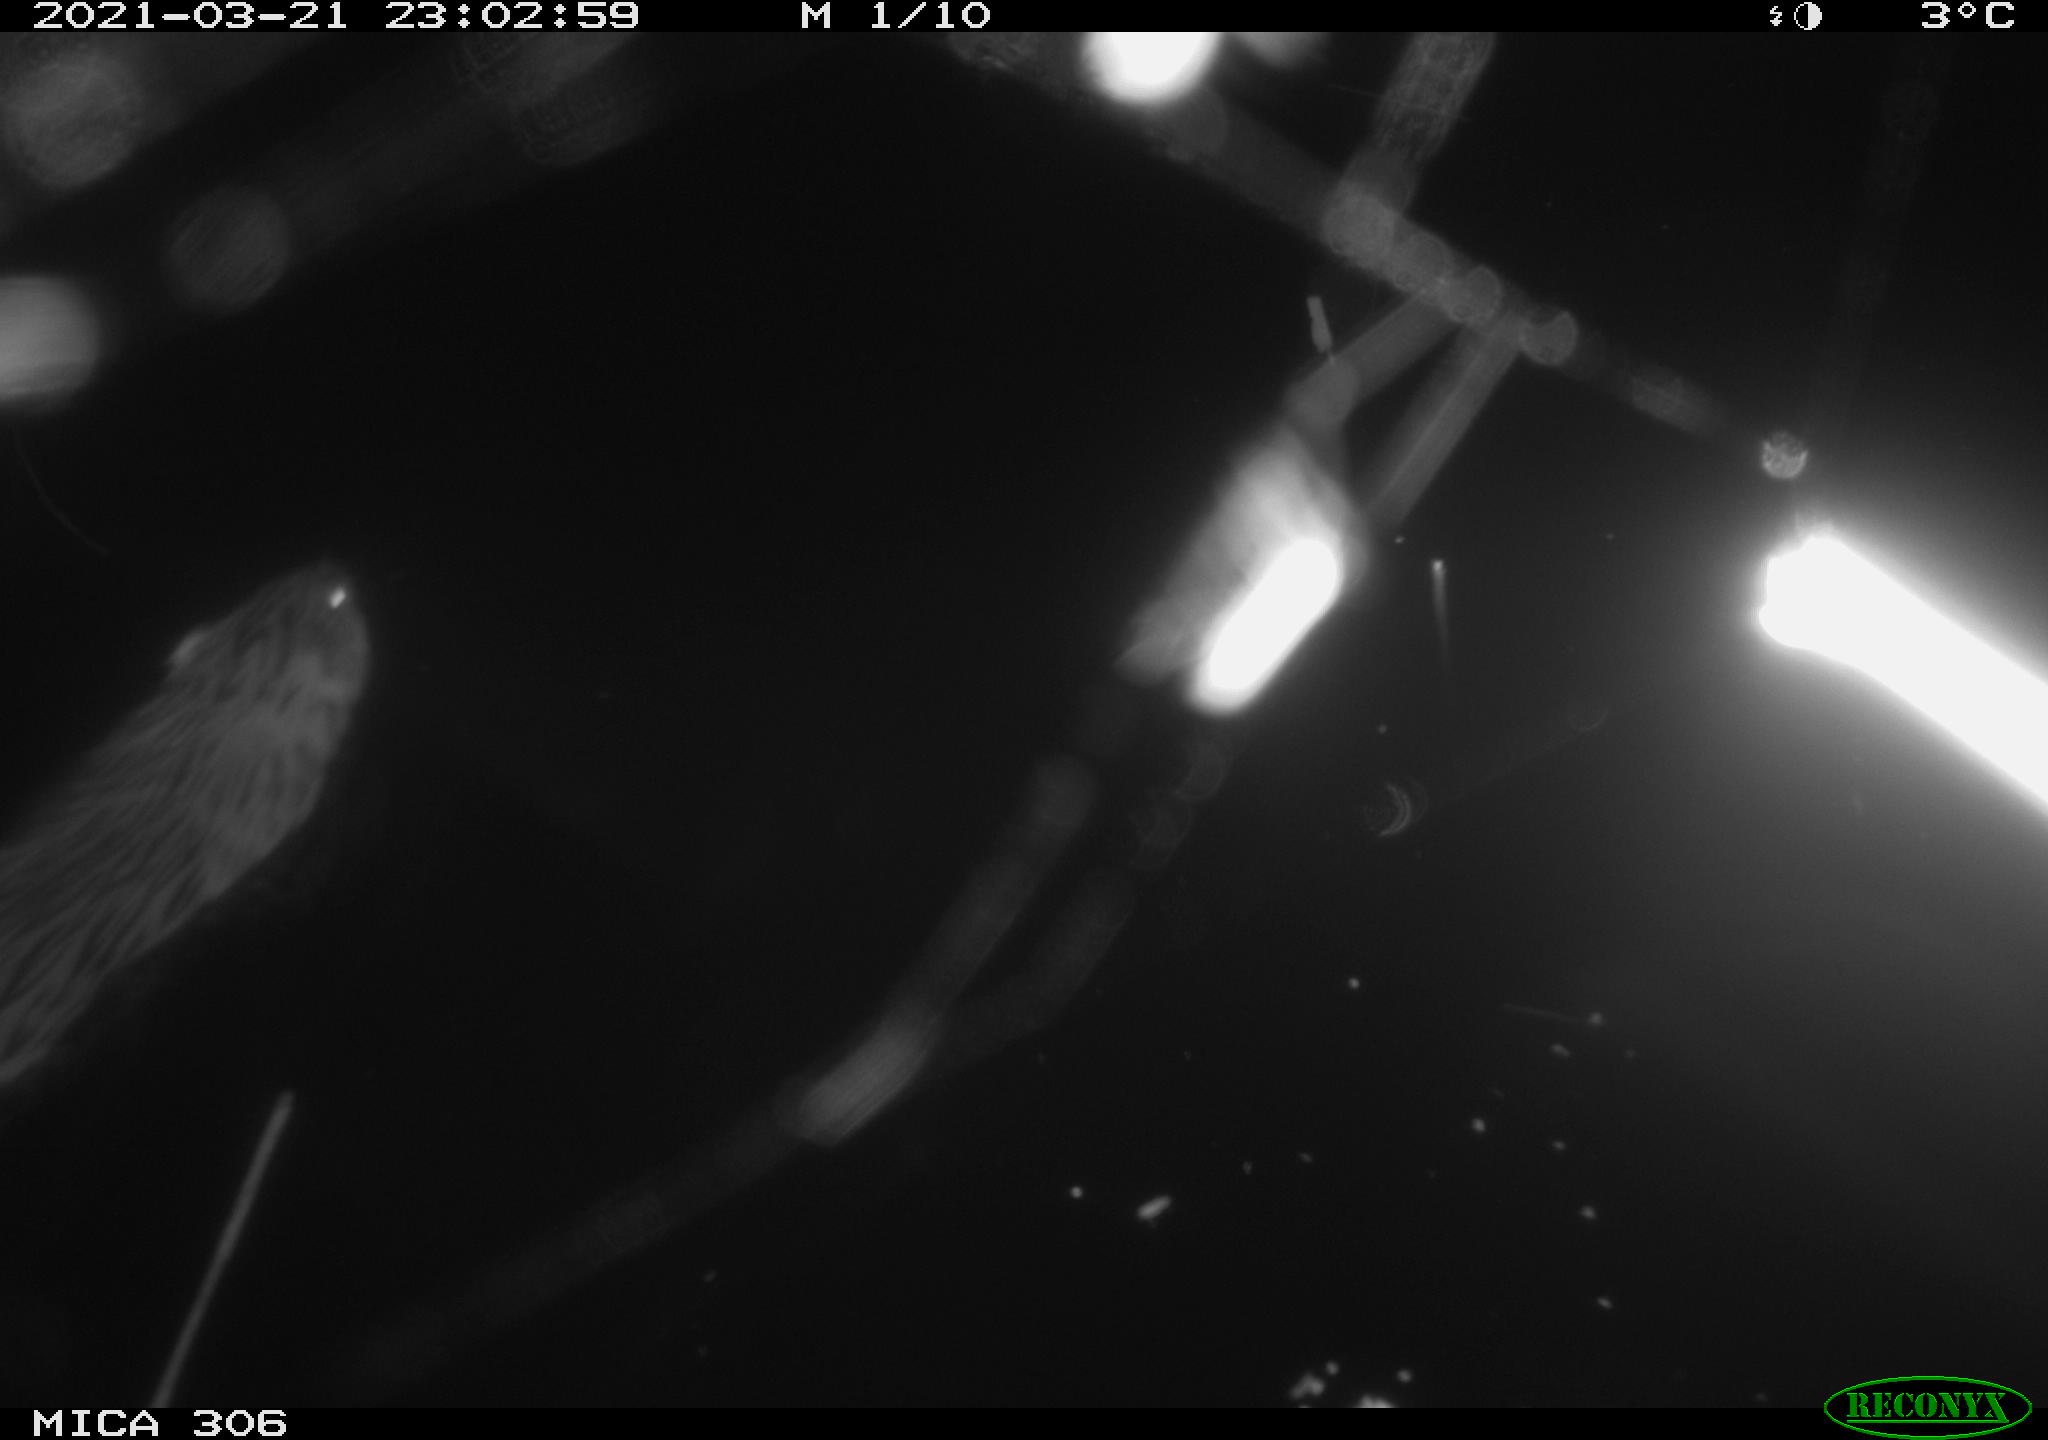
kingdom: Animalia
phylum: Chordata
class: Mammalia
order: Rodentia
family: Cricetidae
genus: Ondatra
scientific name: Ondatra zibethicus
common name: Muskrat
